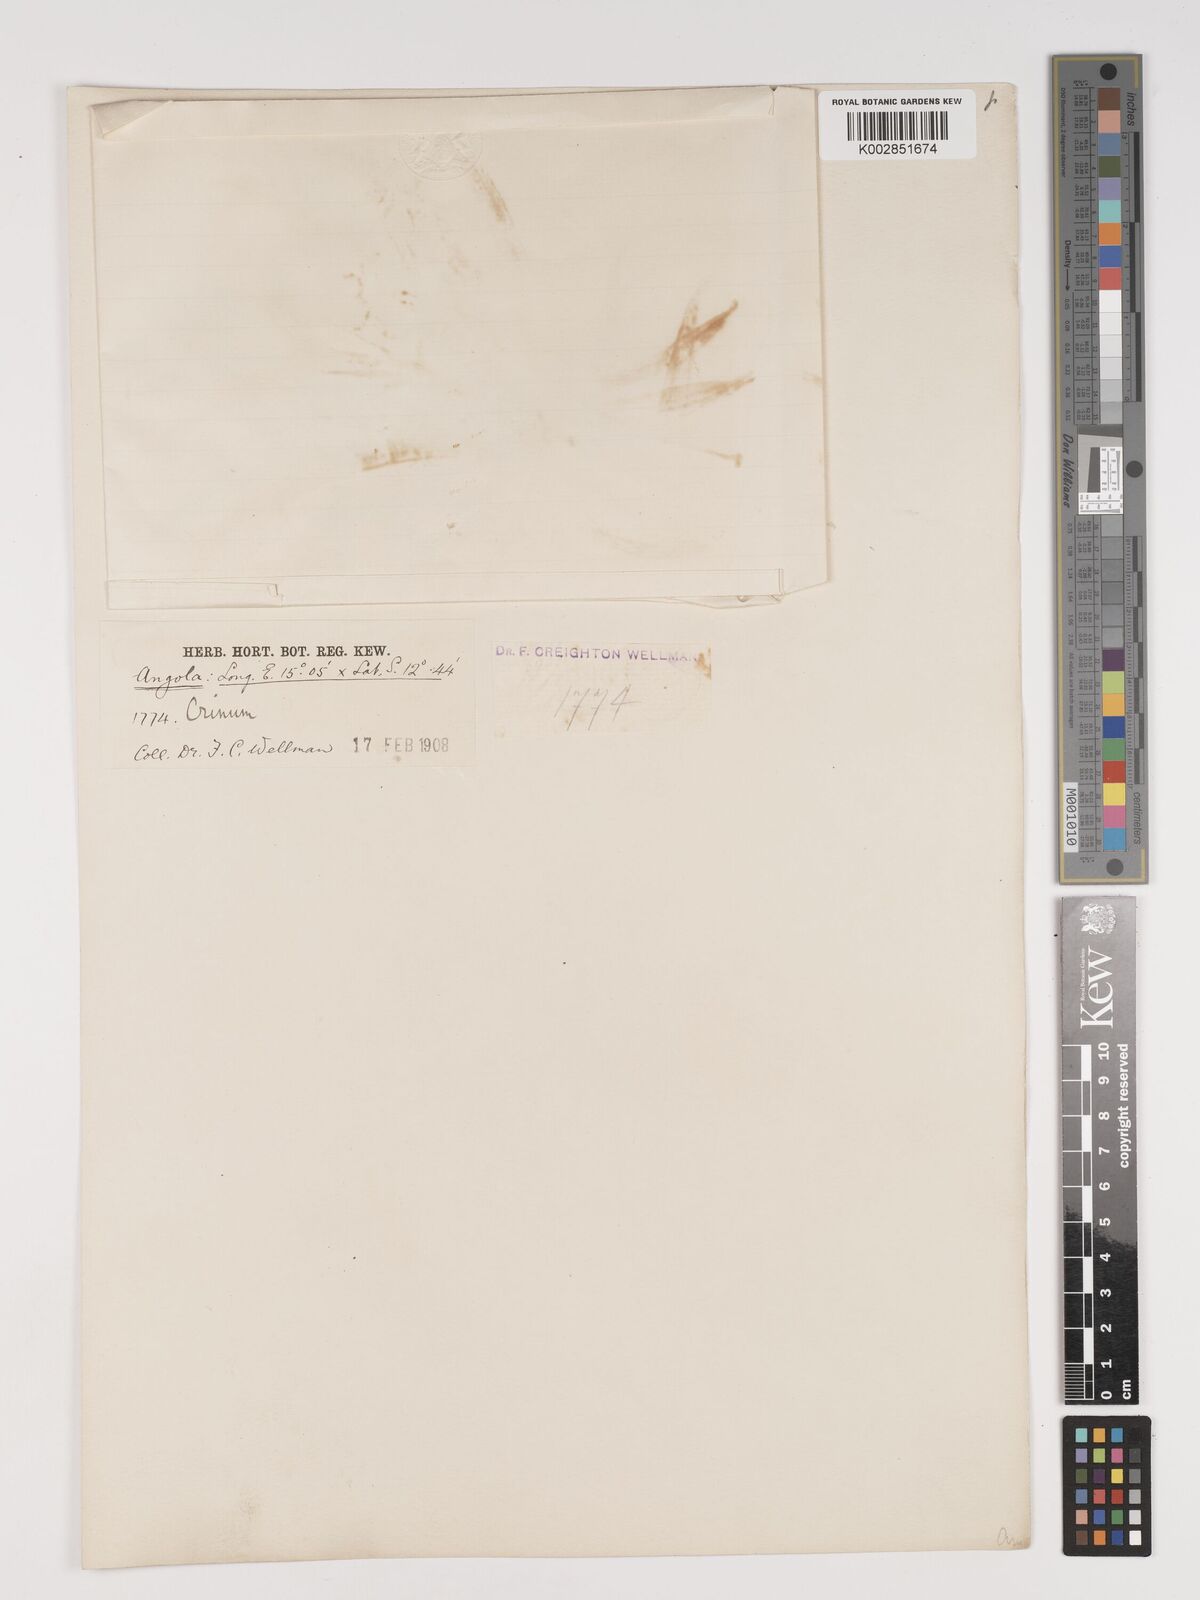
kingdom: Plantae
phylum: Tracheophyta
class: Liliopsida
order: Asparagales
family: Amaryllidaceae
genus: Crinum
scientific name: Crinum
